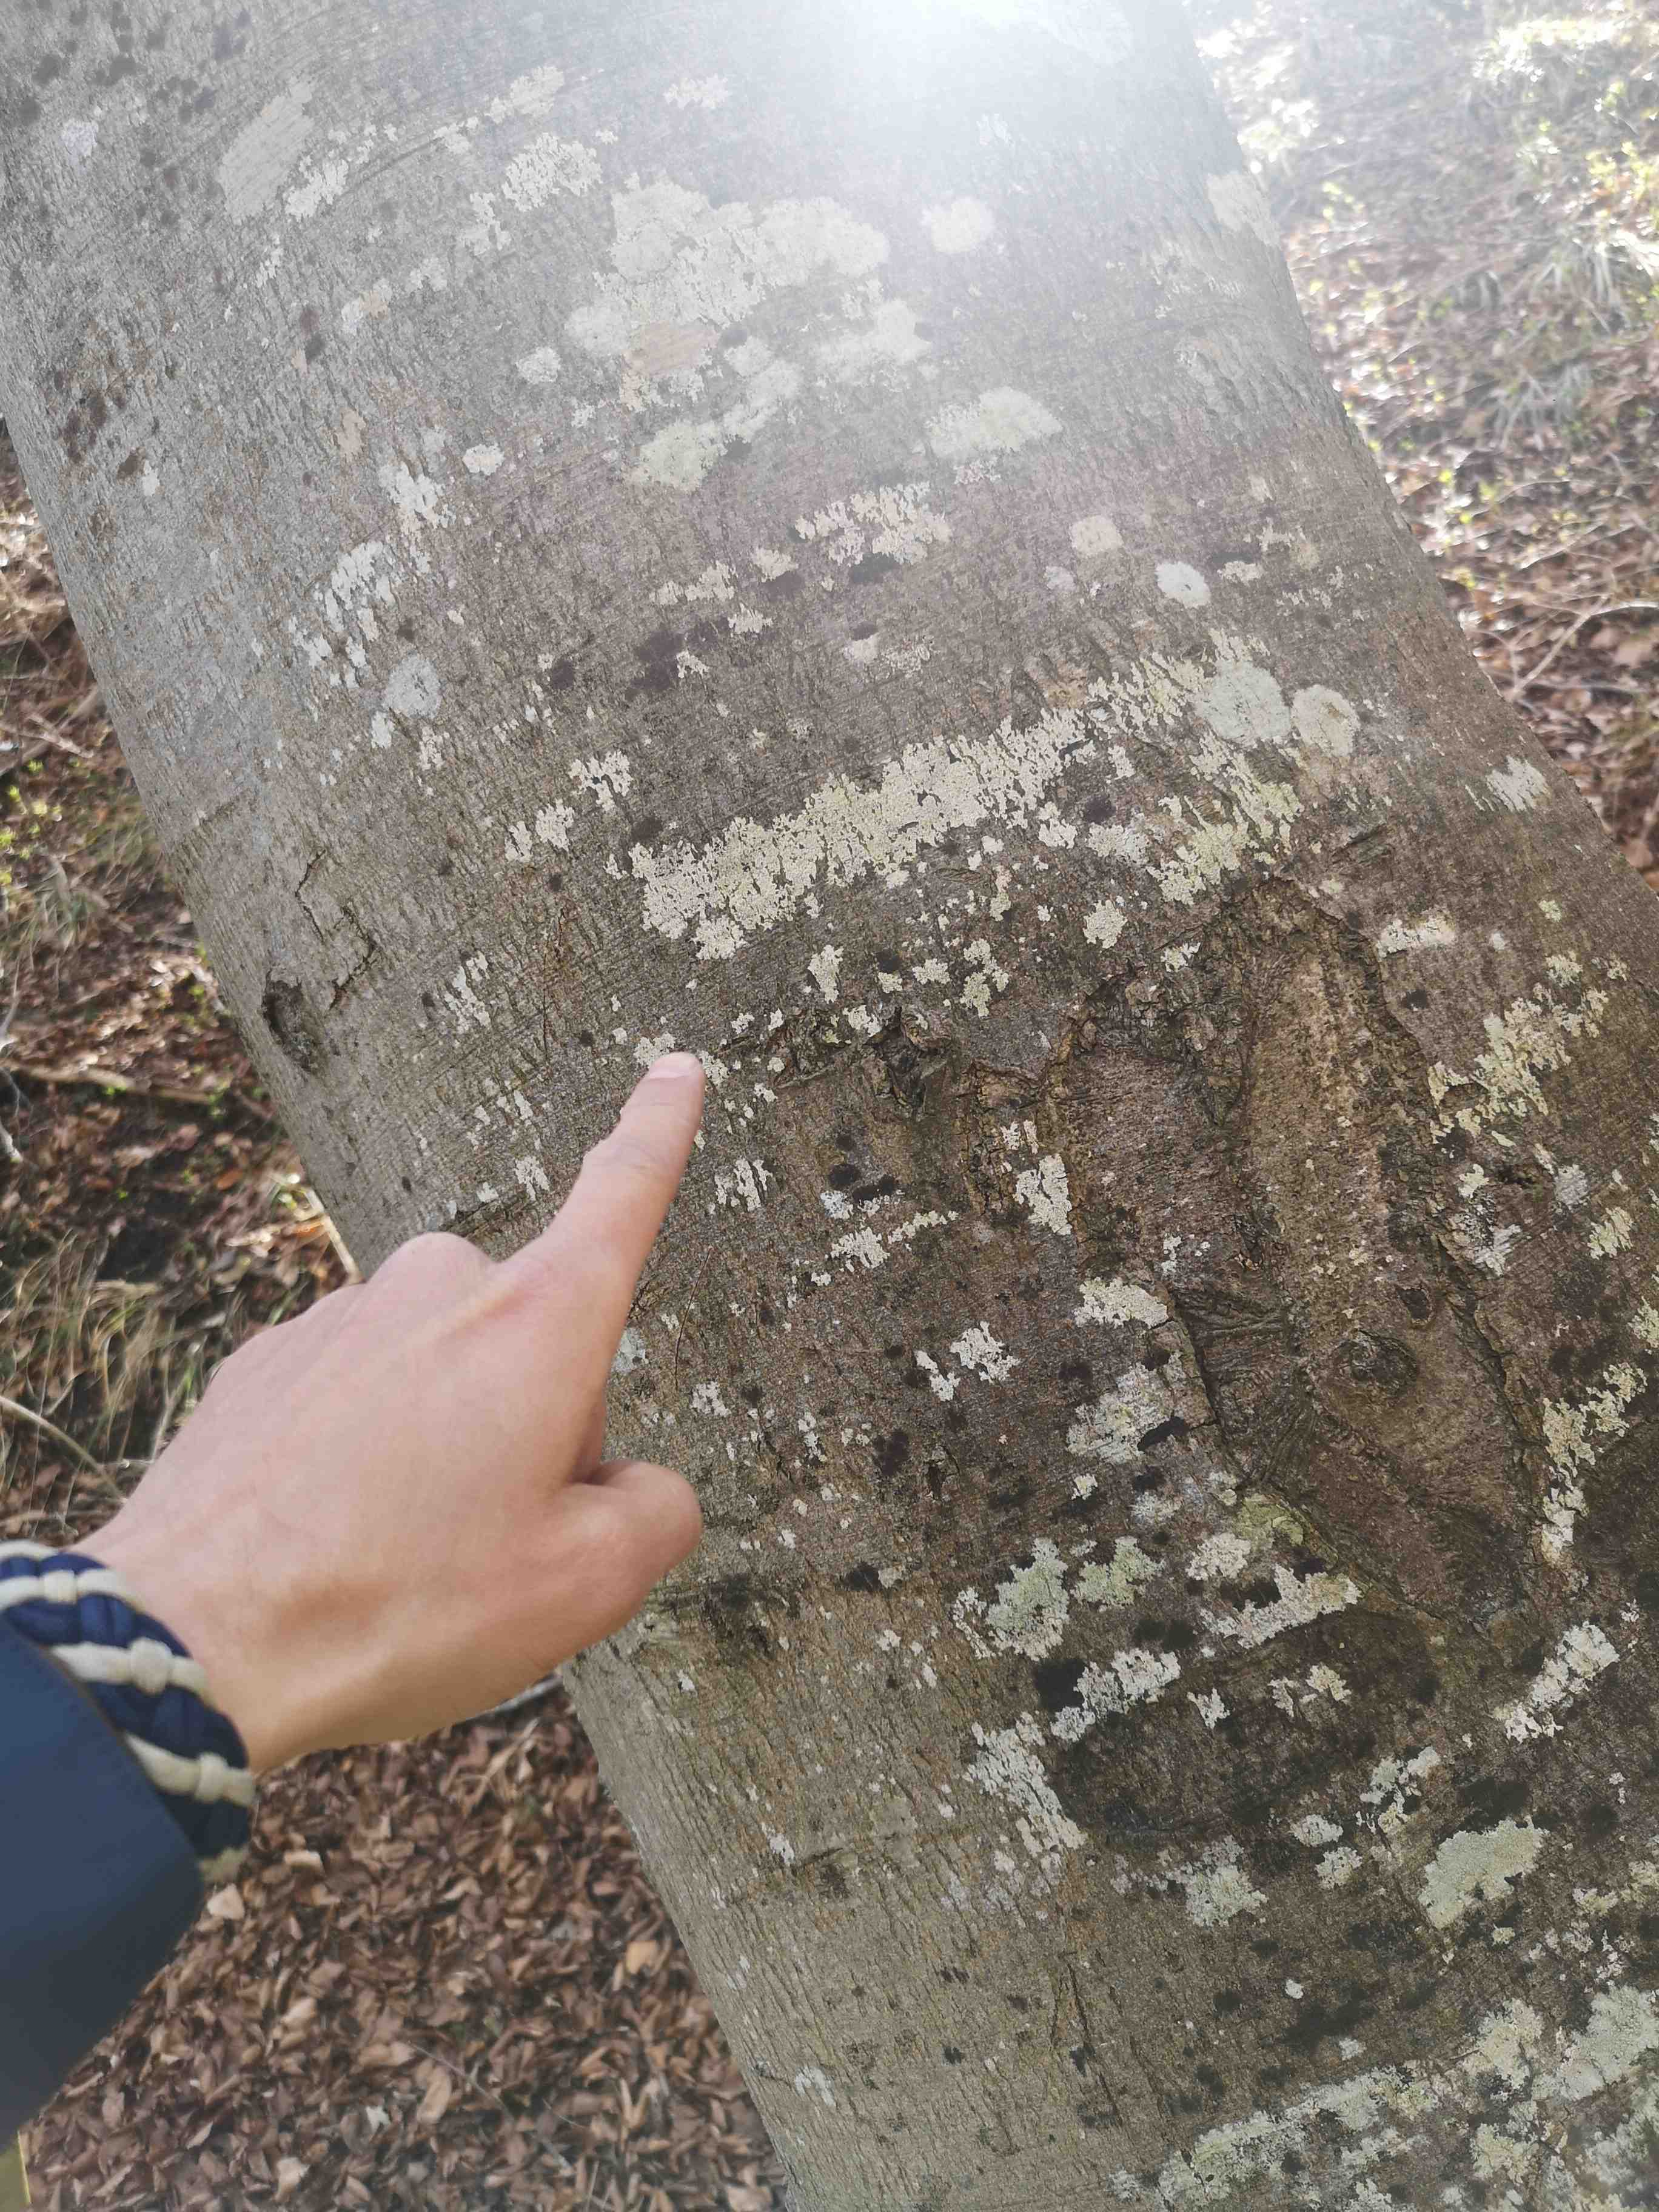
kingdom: Fungi
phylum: Ascomycota
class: Lecanoromycetes
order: Ostropales
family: Graphidaceae
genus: Graphis
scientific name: Graphis scripta
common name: almindelig skriftlav
